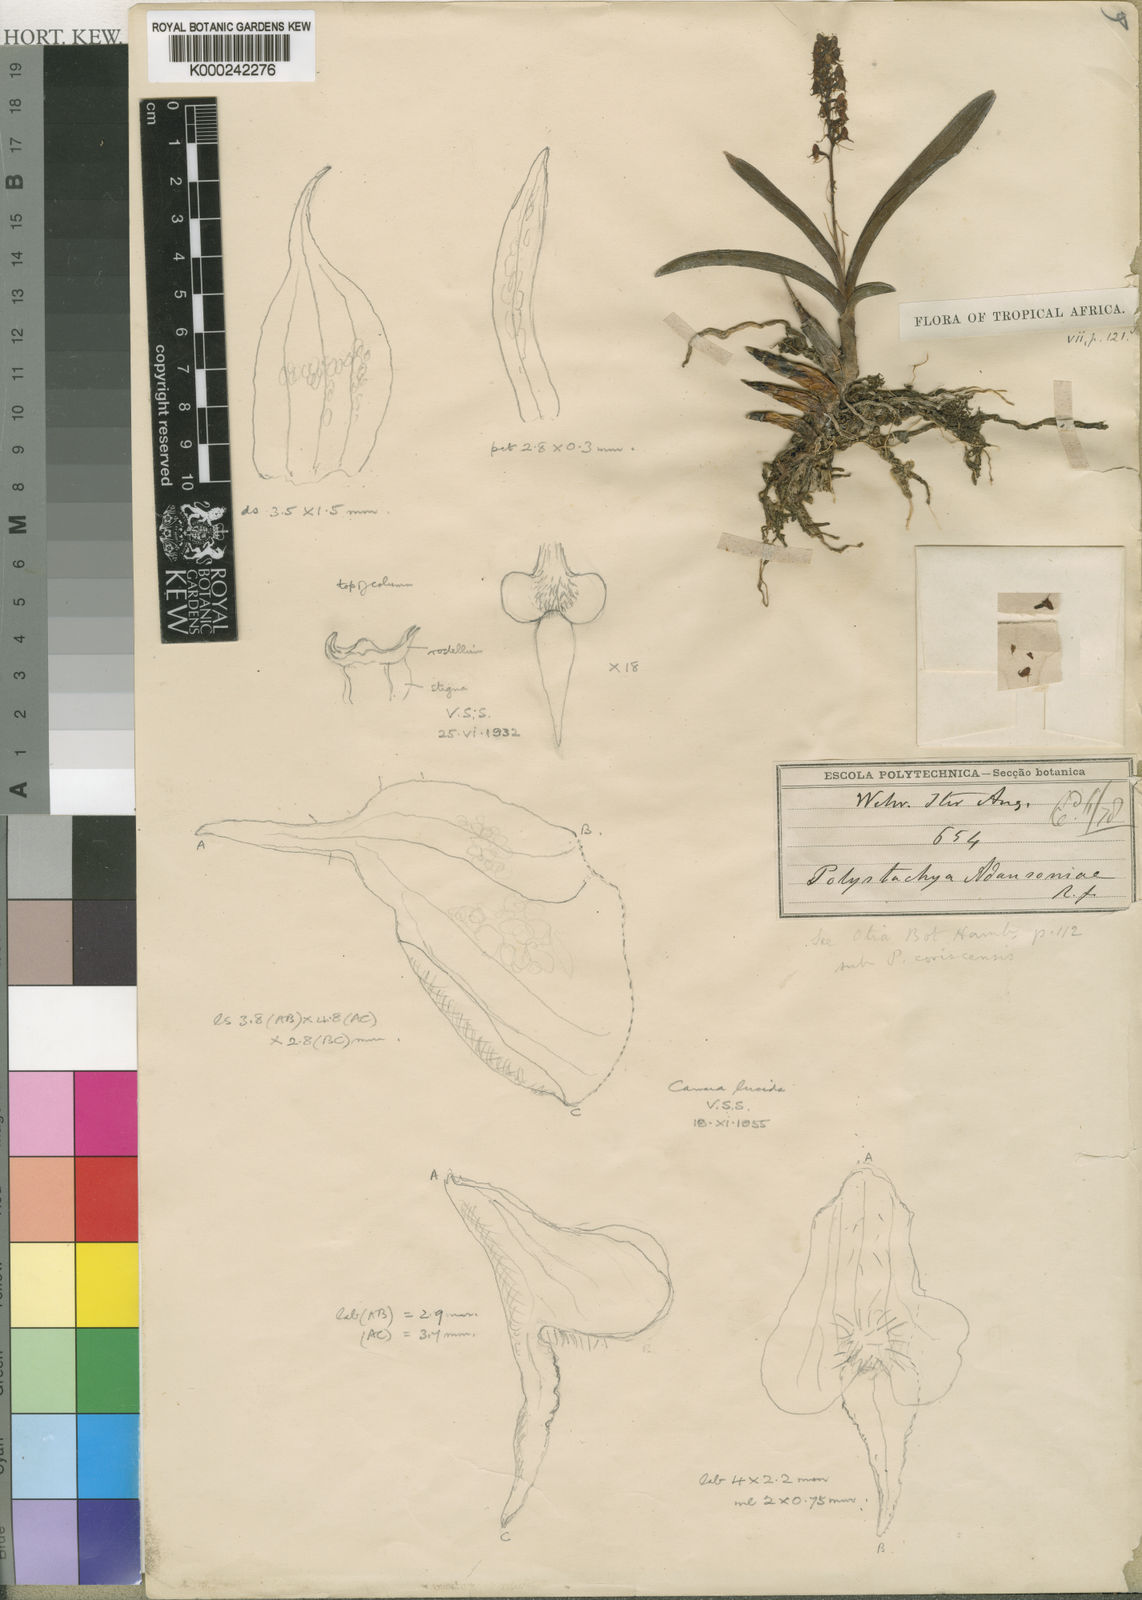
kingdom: Plantae
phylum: Tracheophyta
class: Liliopsida
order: Asparagales
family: Orchidaceae
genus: Polystachya
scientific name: Polystachya adansoniae
